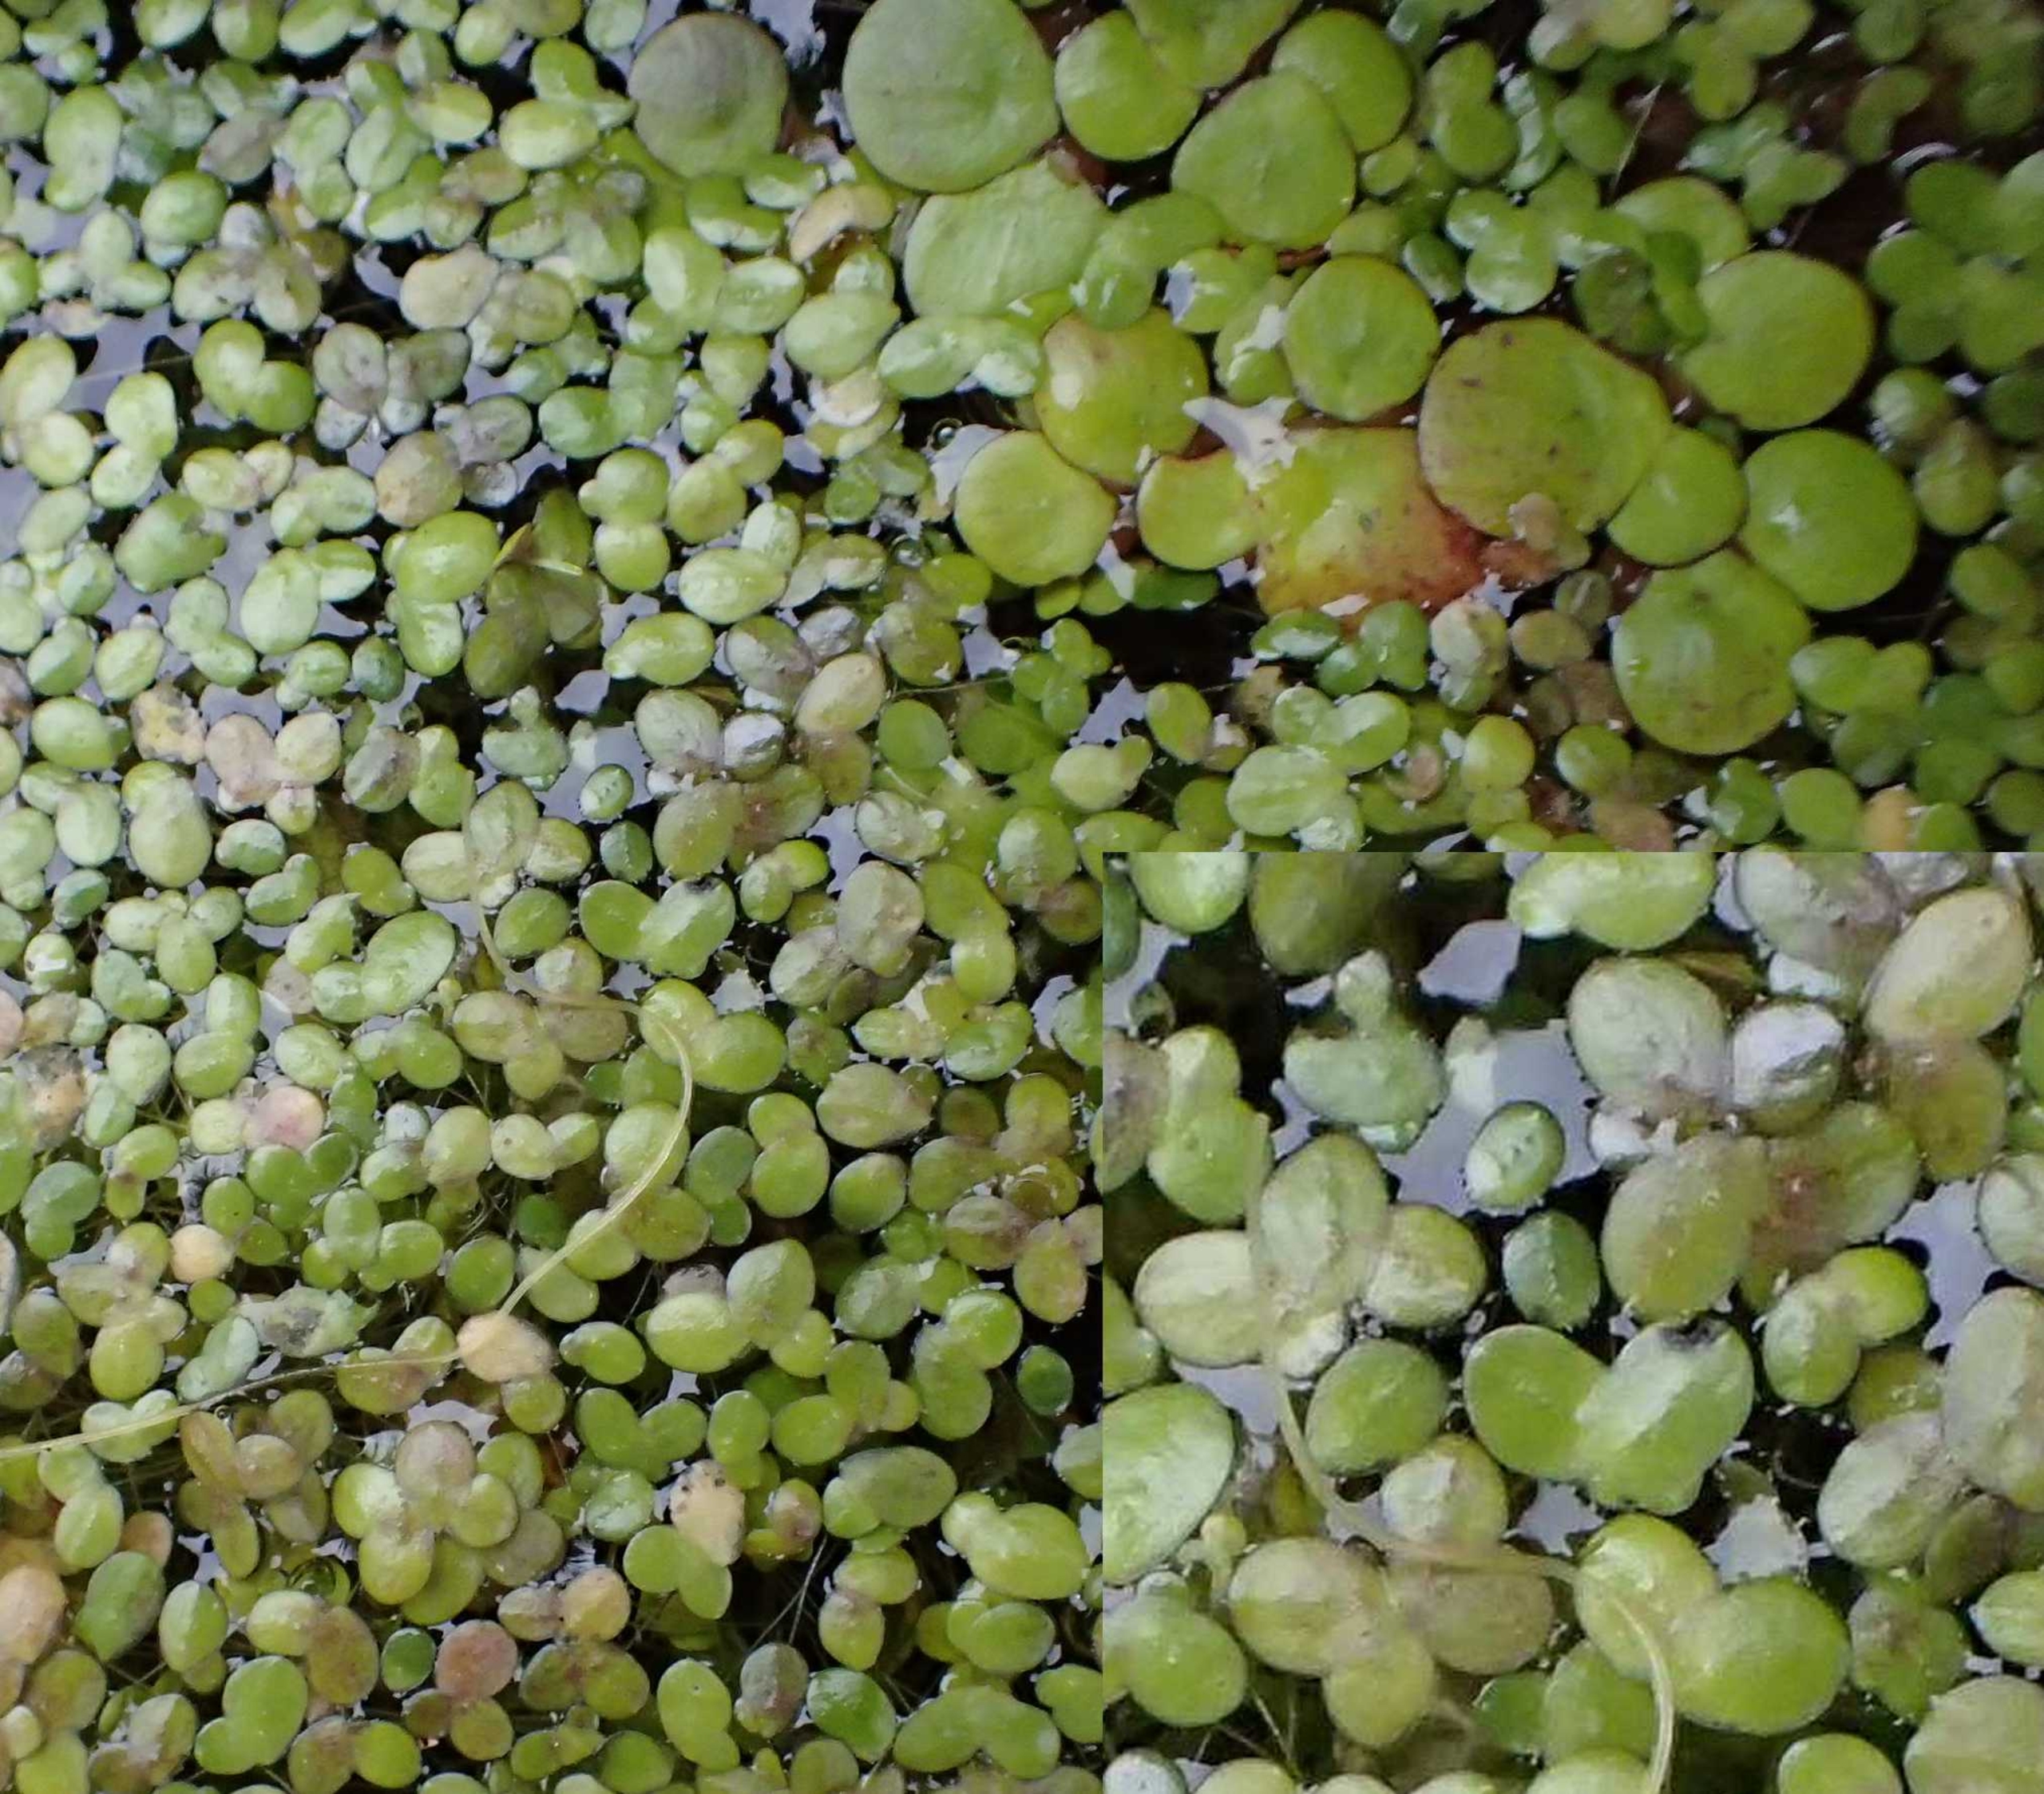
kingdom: Plantae
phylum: Tracheophyta
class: Liliopsida
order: Alismatales
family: Araceae
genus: Lemna
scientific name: Lemna
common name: Andemad (Lemna-slægten)
